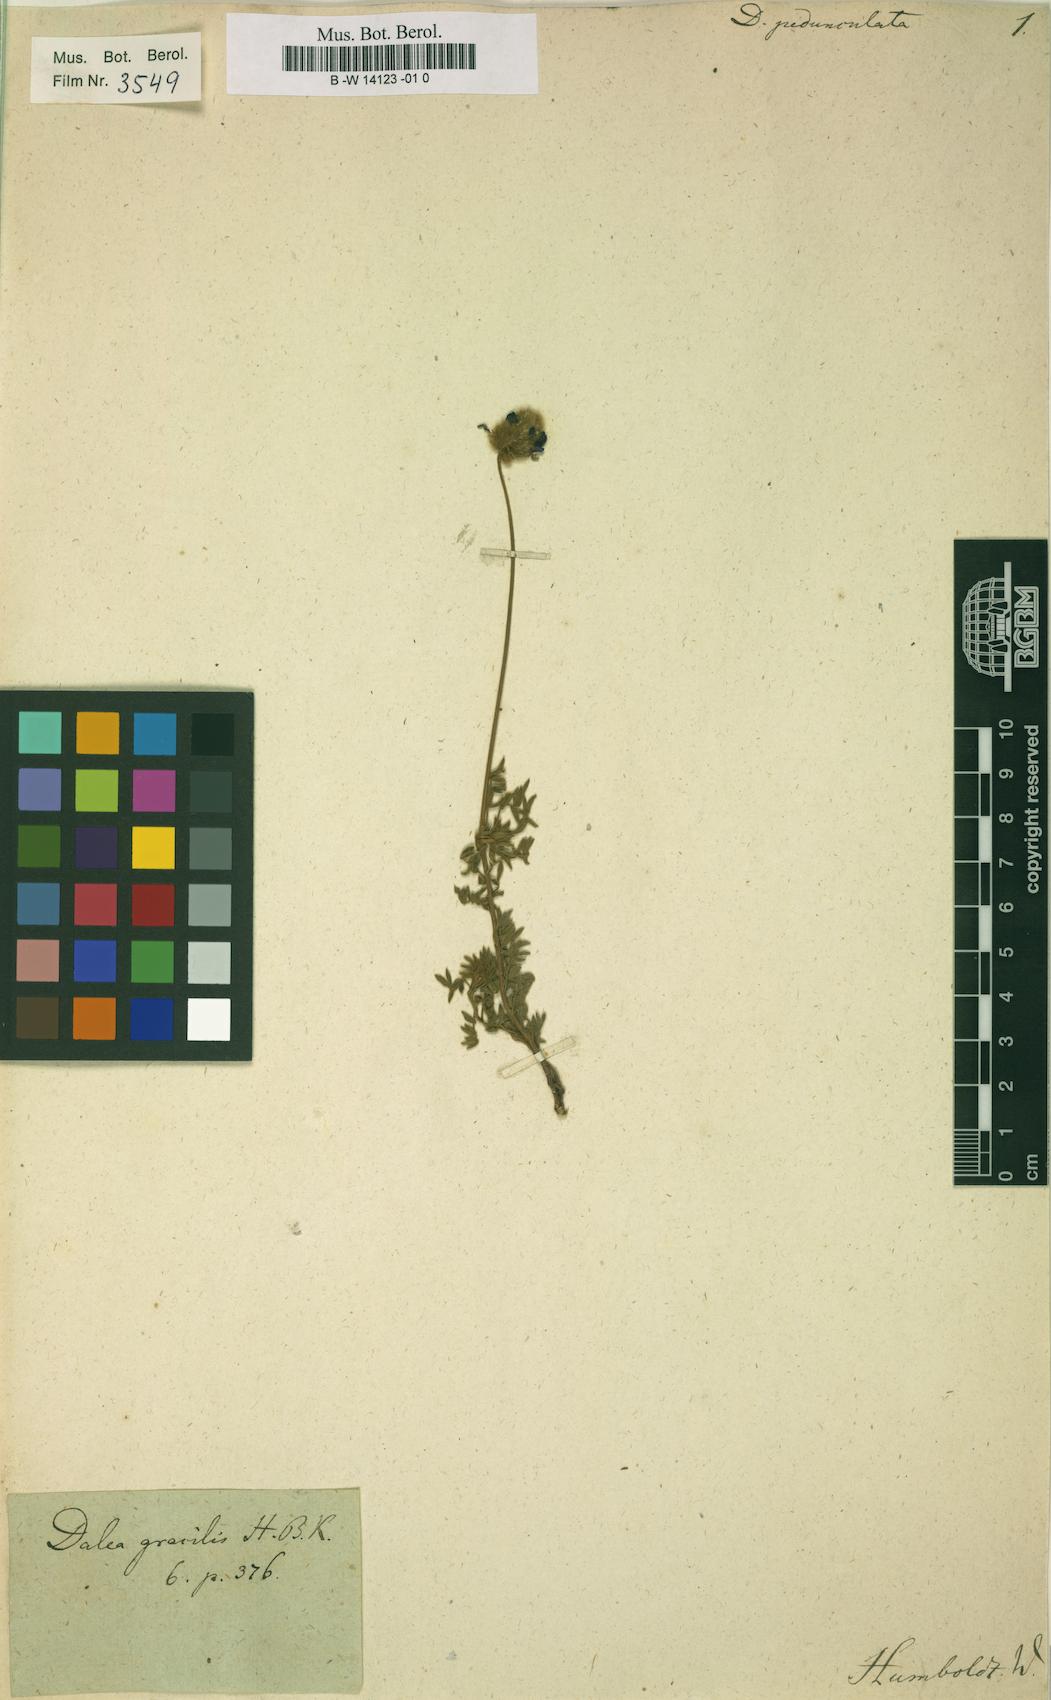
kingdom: Plantae
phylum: Tracheophyta
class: Magnoliopsida
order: Fabales
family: Fabaceae
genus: Dalea
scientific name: Dalea leporina
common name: Foxtail dalea
